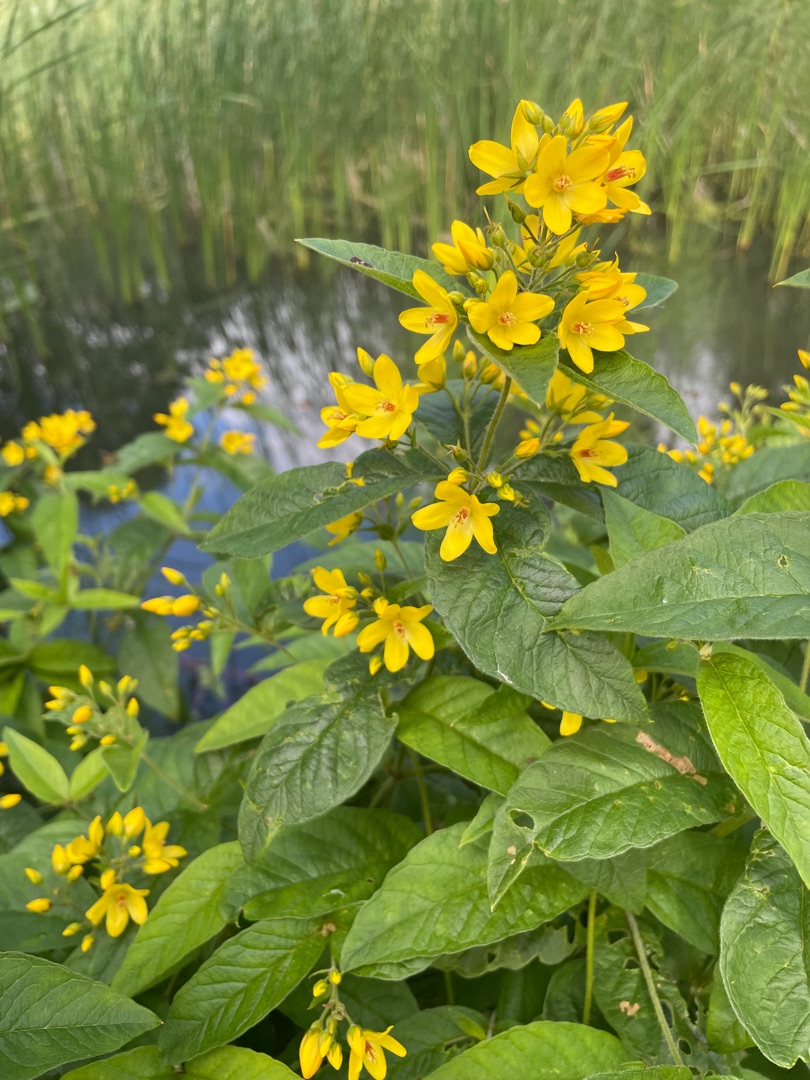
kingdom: Plantae
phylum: Tracheophyta
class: Magnoliopsida
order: Ericales
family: Primulaceae
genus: Lysimachia
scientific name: Lysimachia vulgaris
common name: Almindelig fredløs
